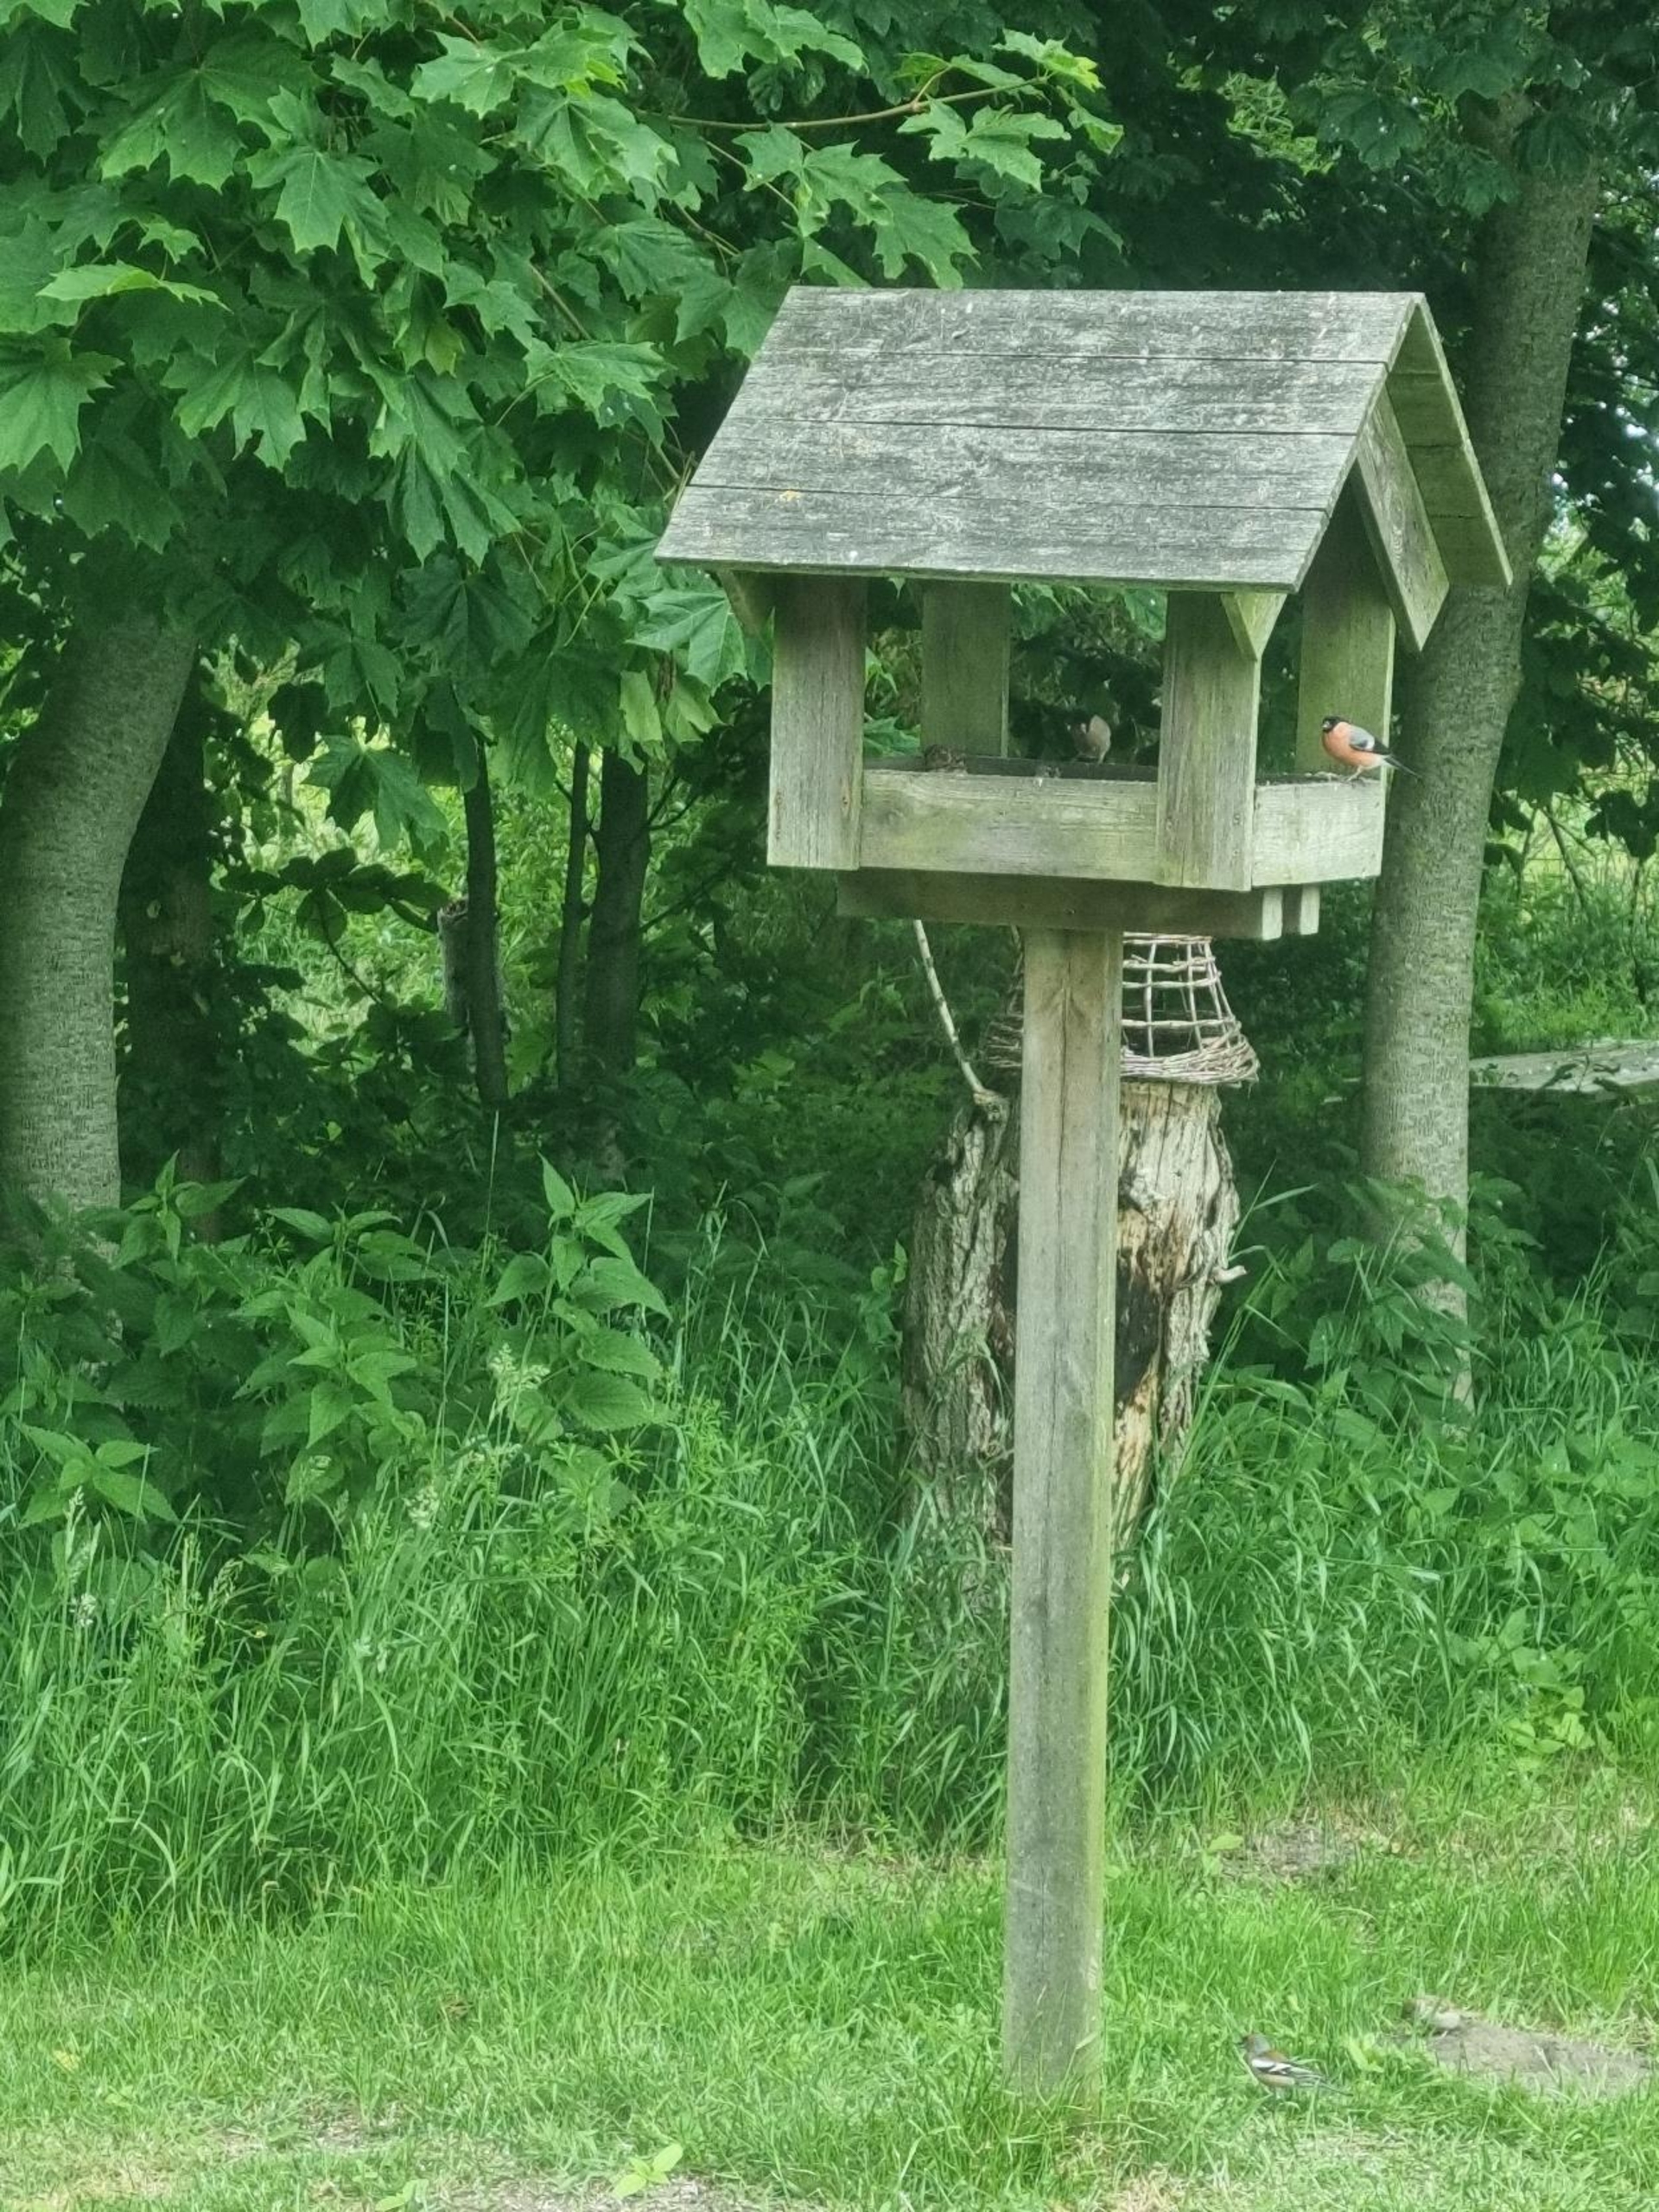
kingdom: Animalia
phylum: Chordata
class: Aves
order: Passeriformes
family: Fringillidae
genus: Pyrrhula
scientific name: Pyrrhula pyrrhula
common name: Dompap
